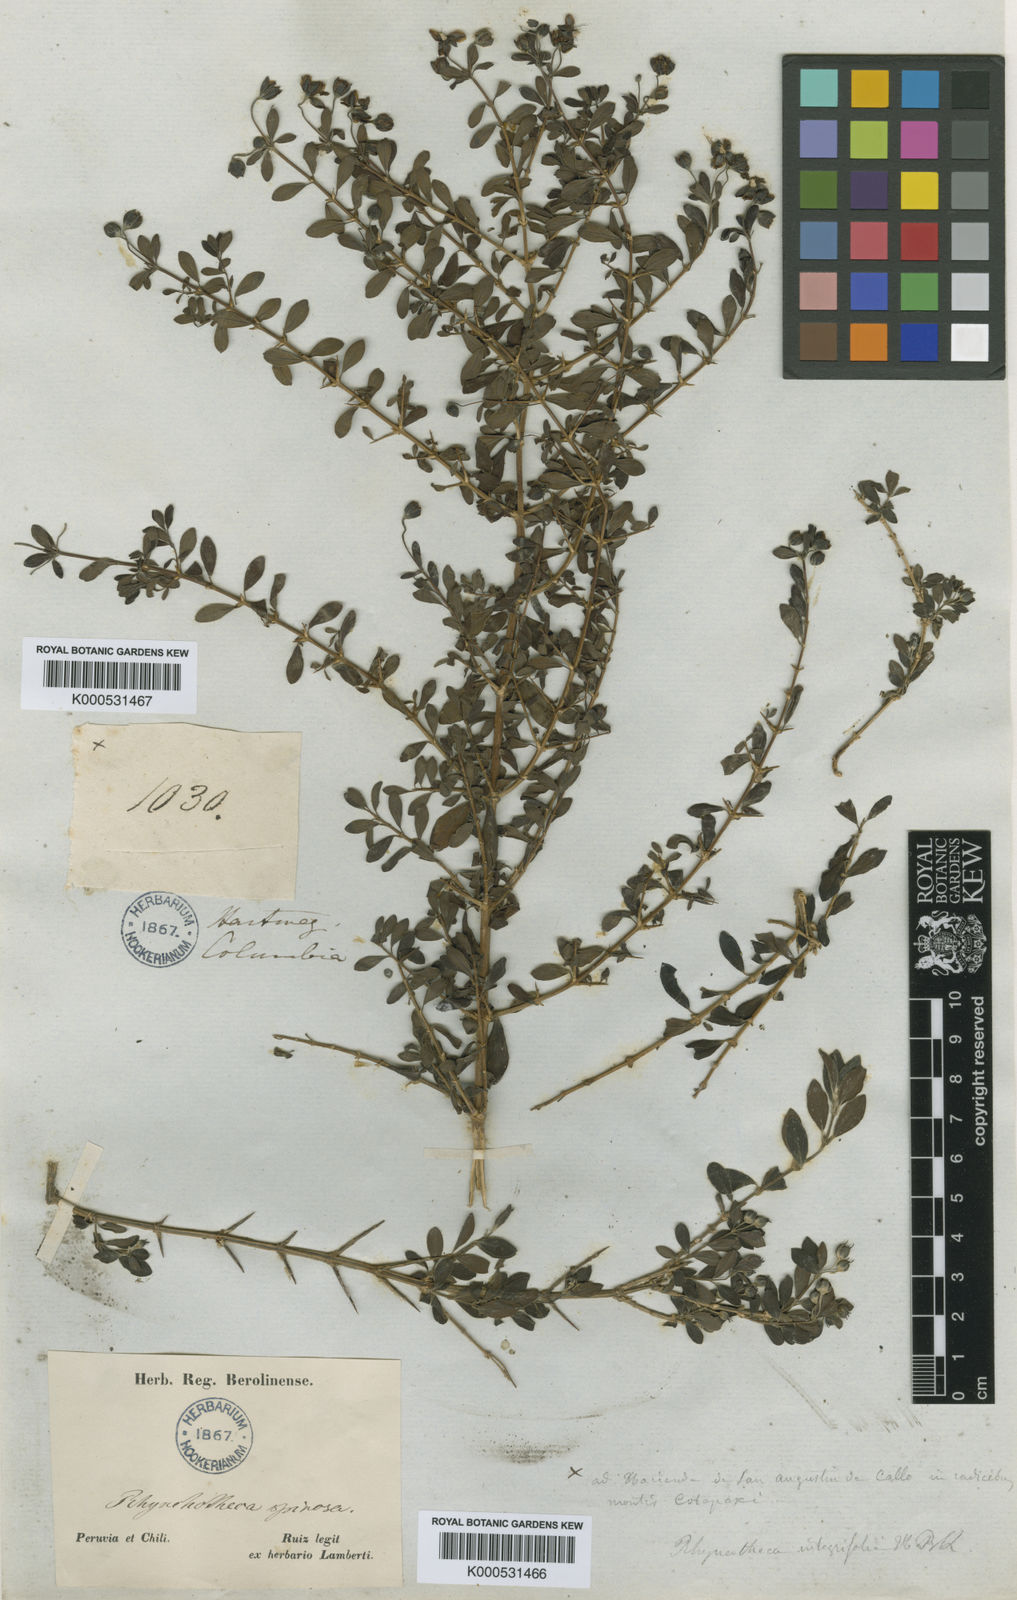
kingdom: Plantae
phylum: Tracheophyta
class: Magnoliopsida
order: Geraniales
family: Vivianiaceae
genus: Rhynchotheca
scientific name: Rhynchotheca spinosa
